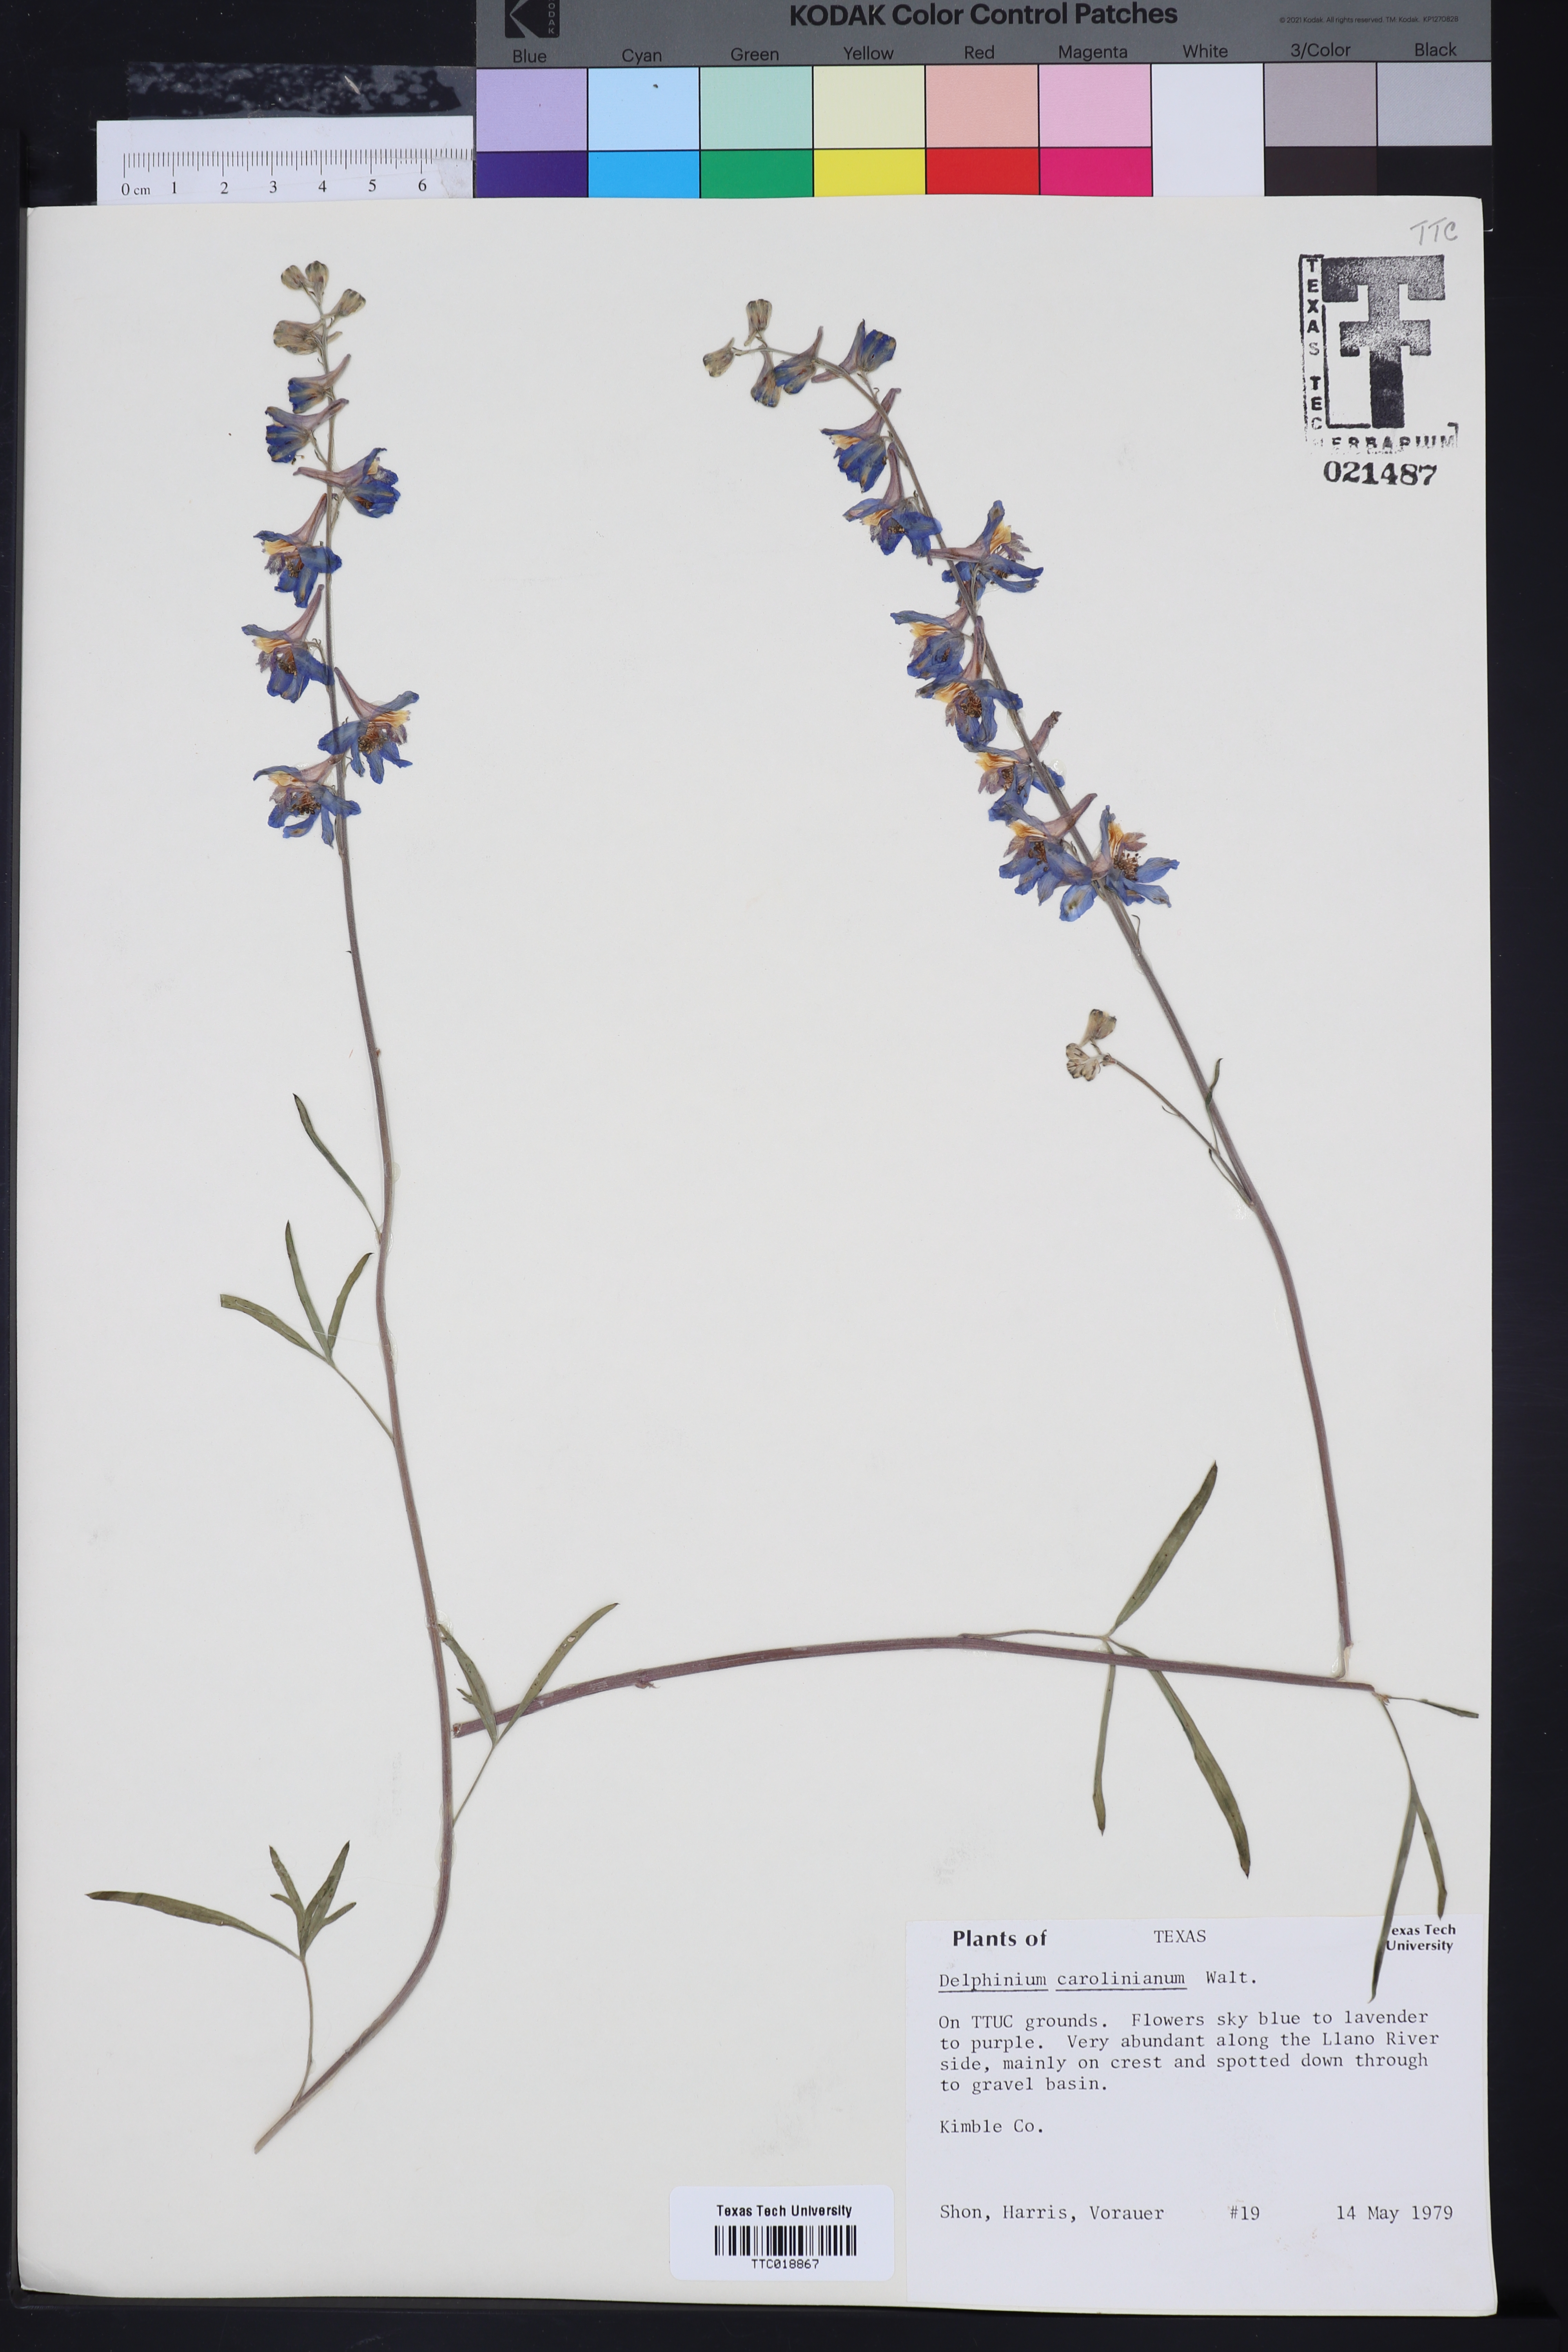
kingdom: Plantae
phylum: Tracheophyta
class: Magnoliopsida
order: Ranunculales
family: Ranunculaceae
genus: Delphinium
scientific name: Delphinium carolinianum
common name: Carolina larkspur
